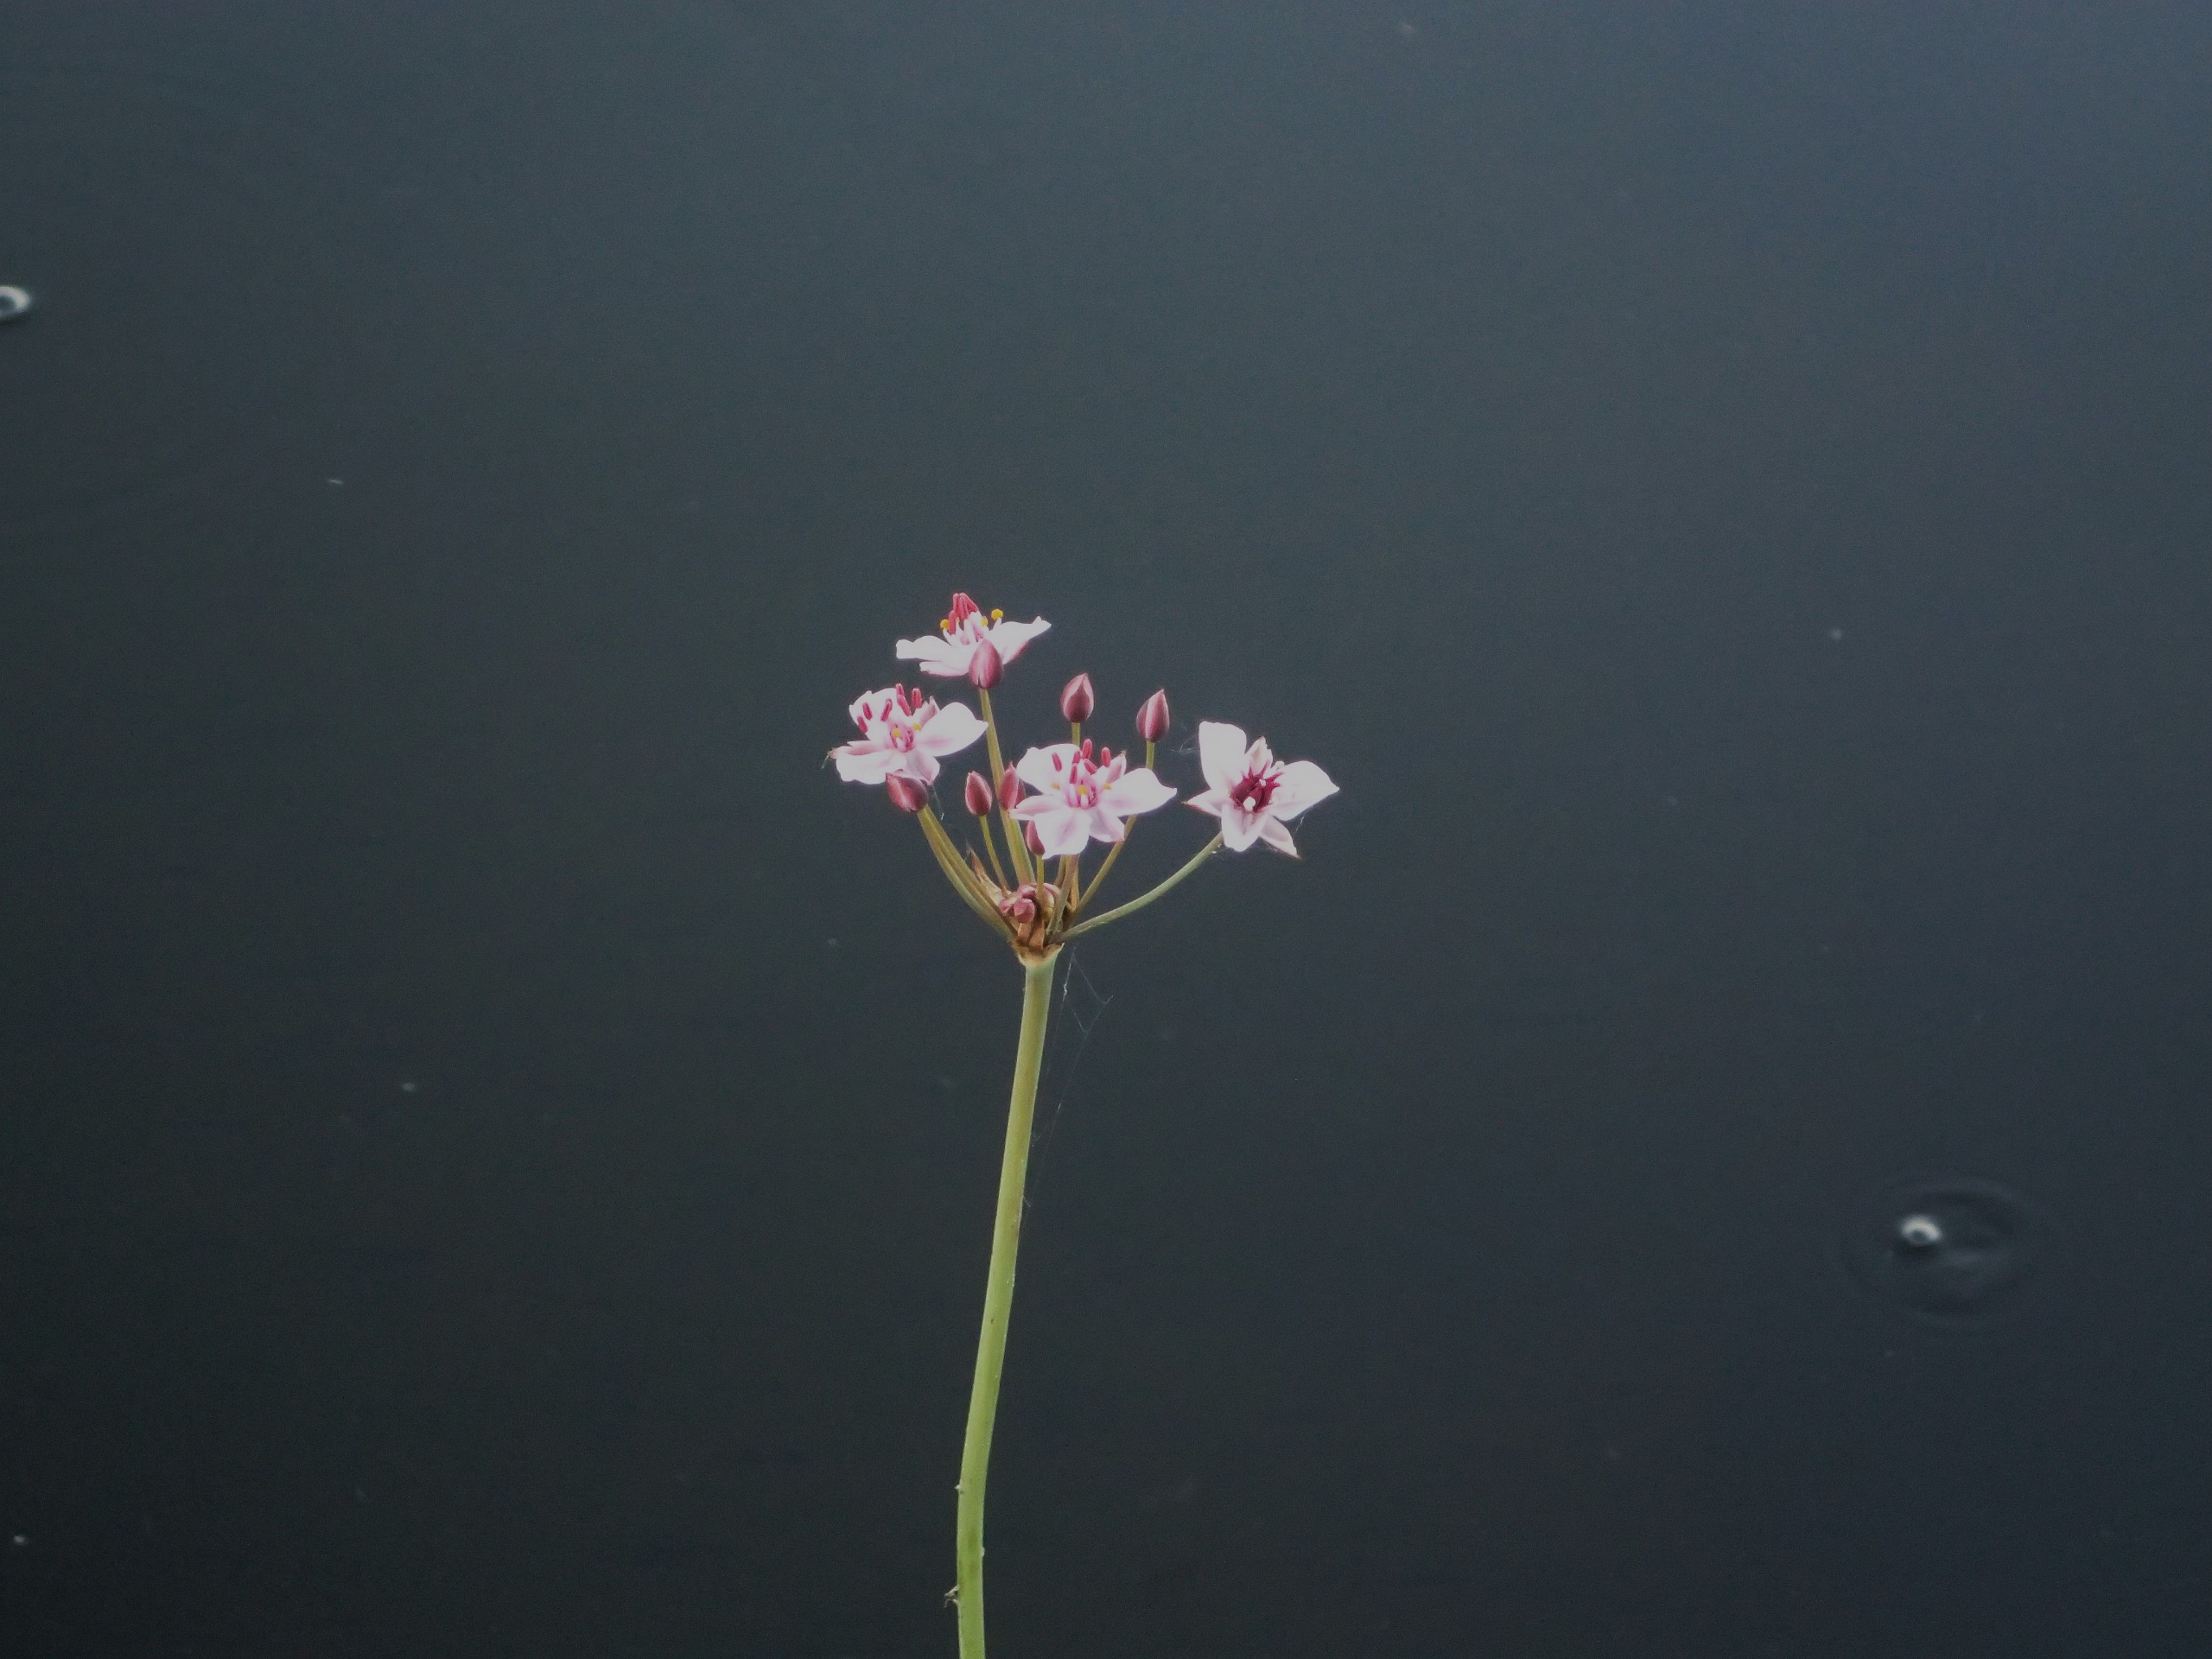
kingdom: Plantae
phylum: Tracheophyta
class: Liliopsida
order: Alismatales
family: Butomaceae
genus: Butomus
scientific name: Butomus umbellatus
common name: Brudelys
